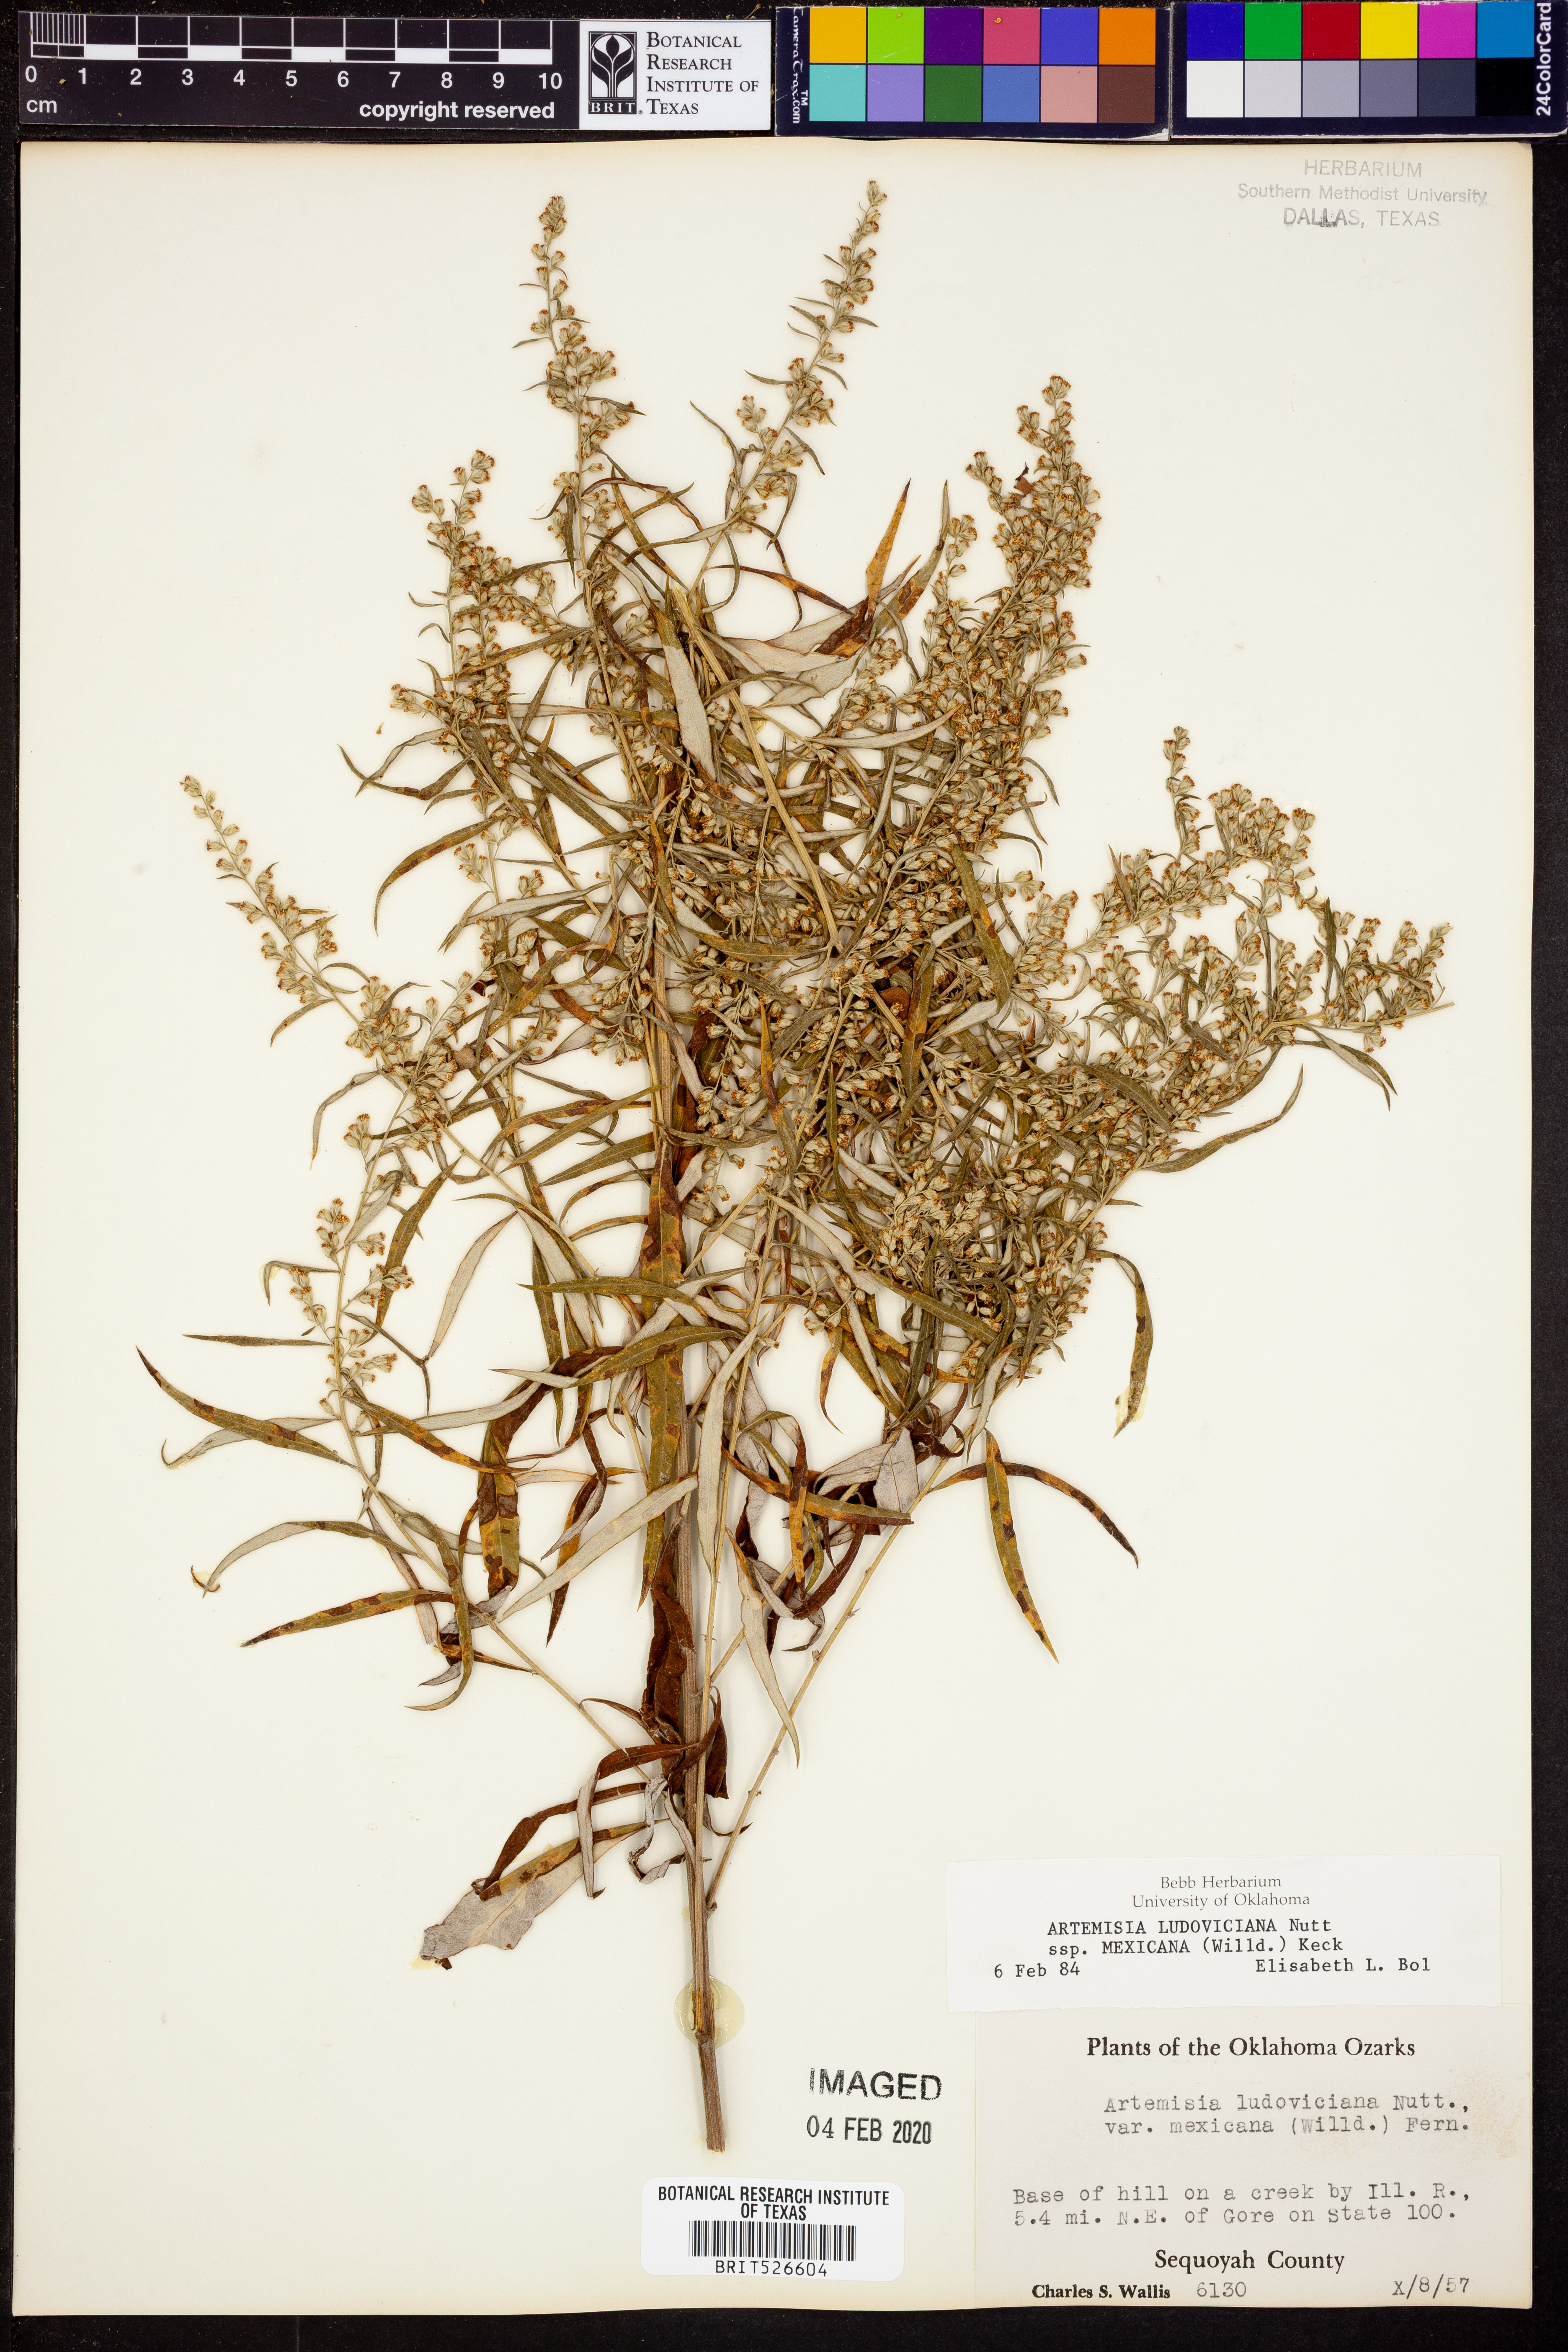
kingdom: Plantae
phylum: Tracheophyta
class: Magnoliopsida
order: Asterales
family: Asteraceae
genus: Artemisia
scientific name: Artemisia ludoviciana
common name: Western mugwort
